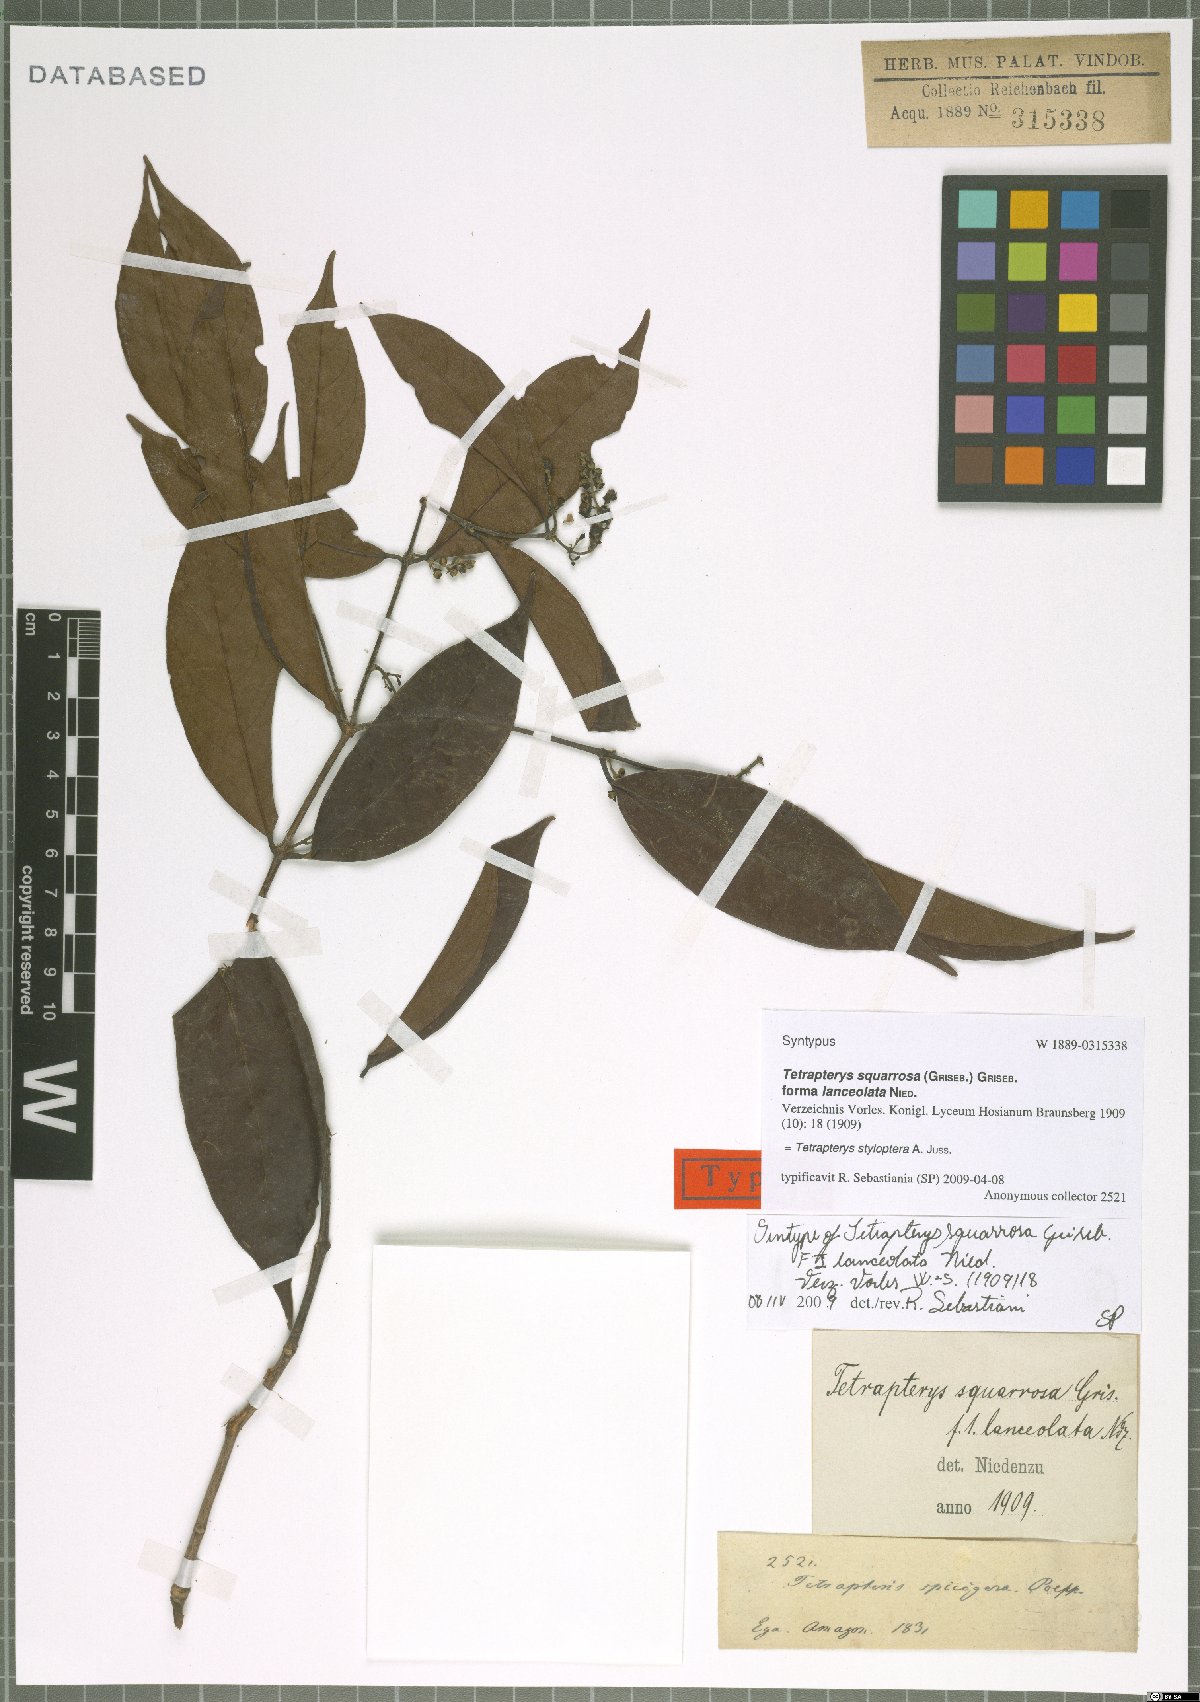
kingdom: Plantae
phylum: Tracheophyta
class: Magnoliopsida
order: Malpighiales
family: Malpighiaceae
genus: Glicophyllum
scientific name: Glicophyllum stylopterum
